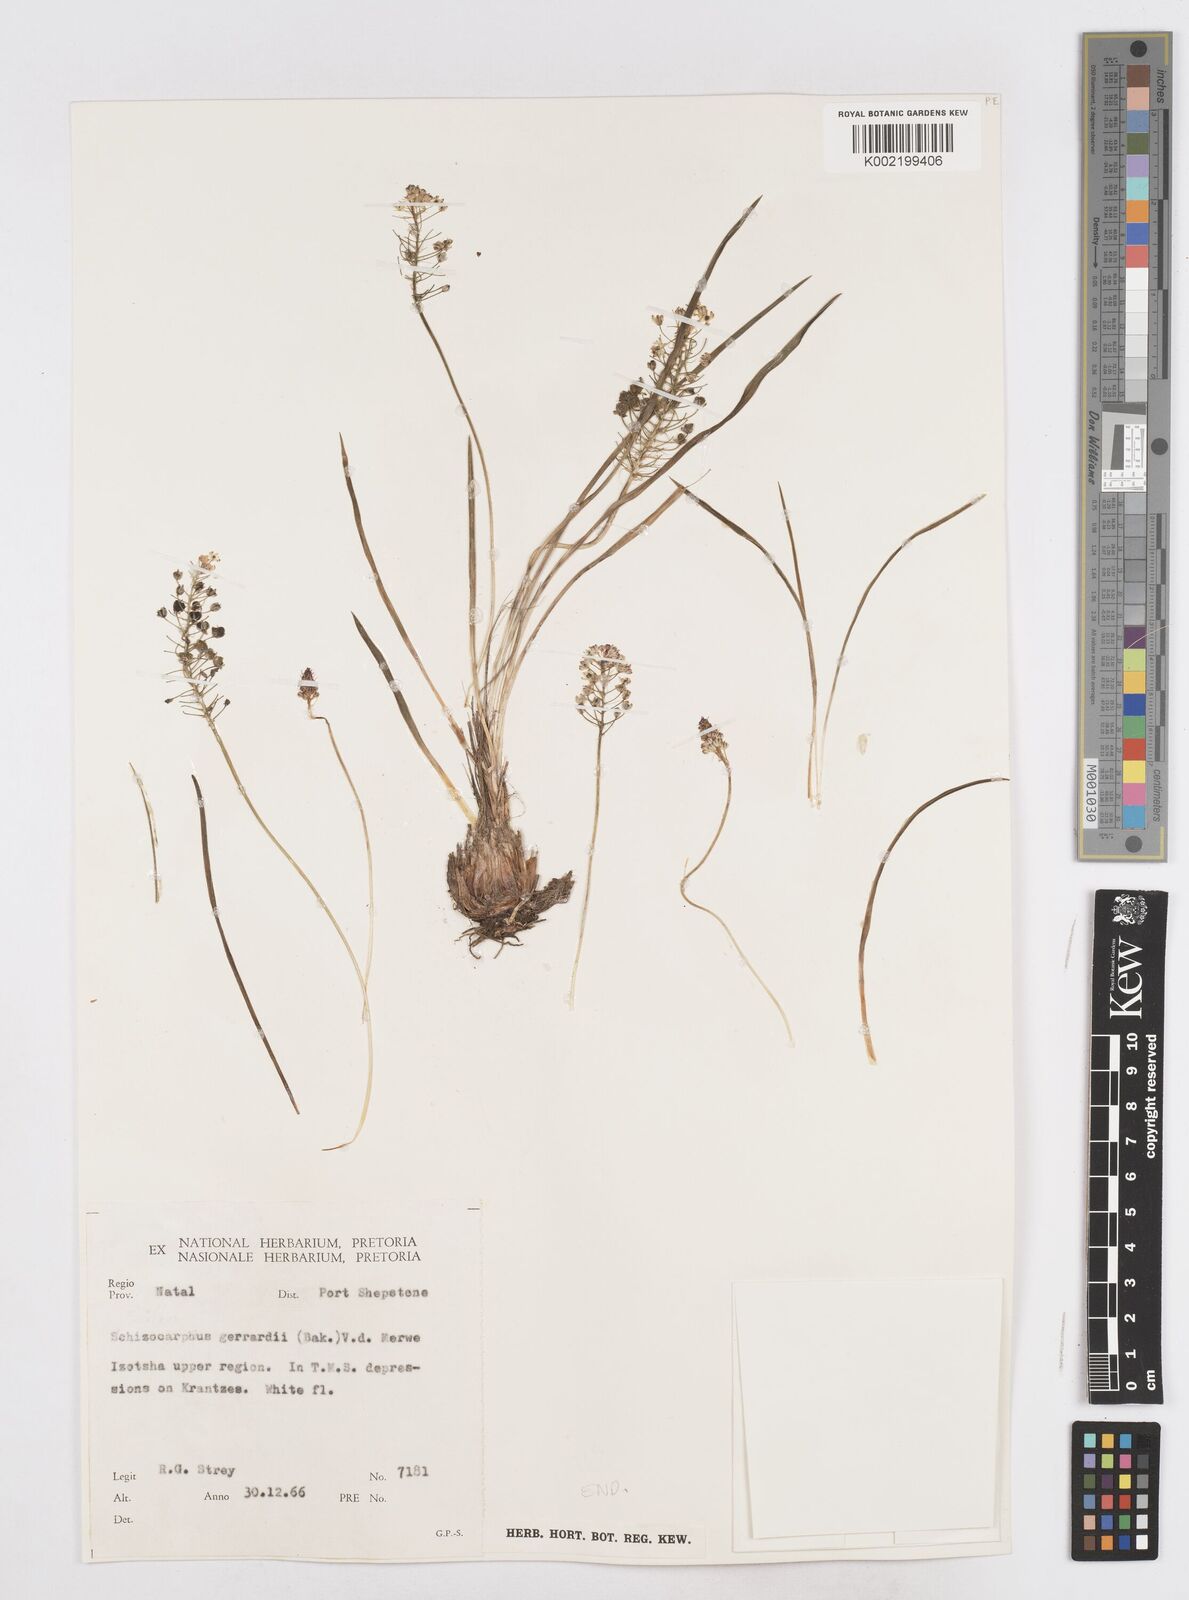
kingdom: Plantae
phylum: Tracheophyta
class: Liliopsida
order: Asparagales
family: Asparagaceae
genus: Schizocarphus
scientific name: Schizocarphus nervosus
